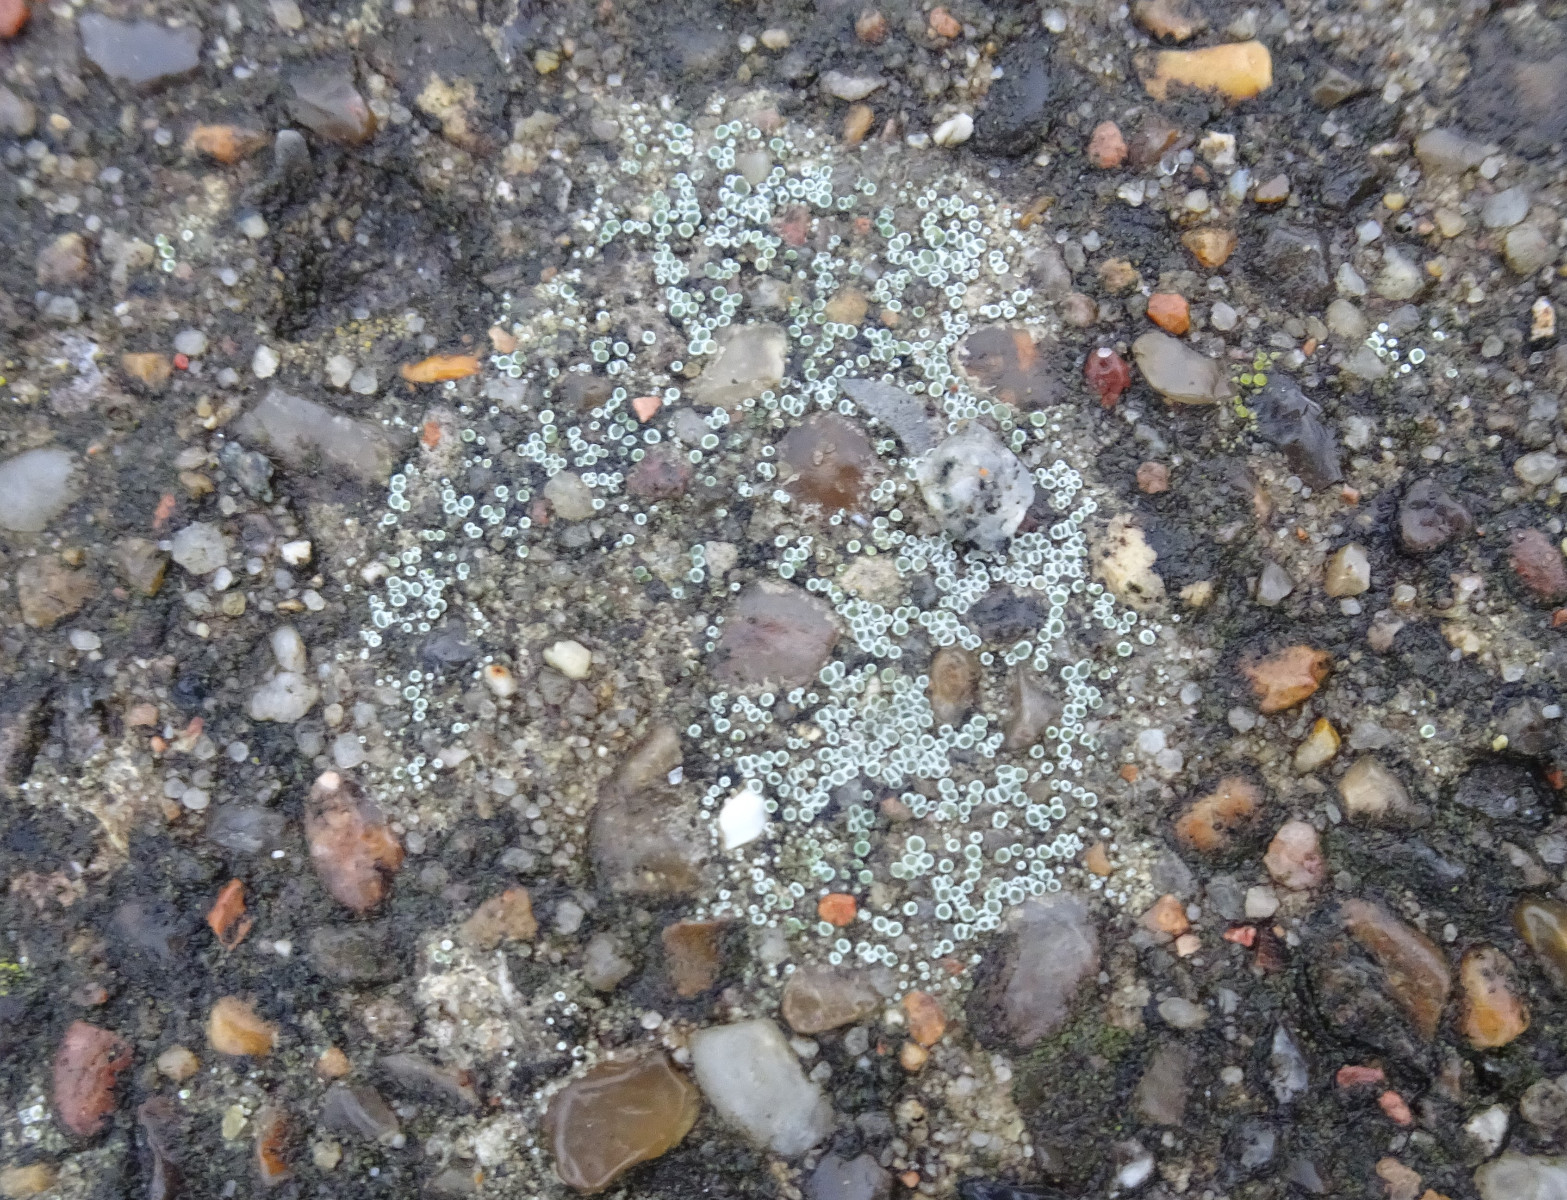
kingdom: Fungi
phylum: Ascomycota
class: Lecanoromycetes
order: Lecanorales
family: Lecanoraceae
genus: Polyozosia
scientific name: Polyozosia dispersa
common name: spredt kantskivelav
